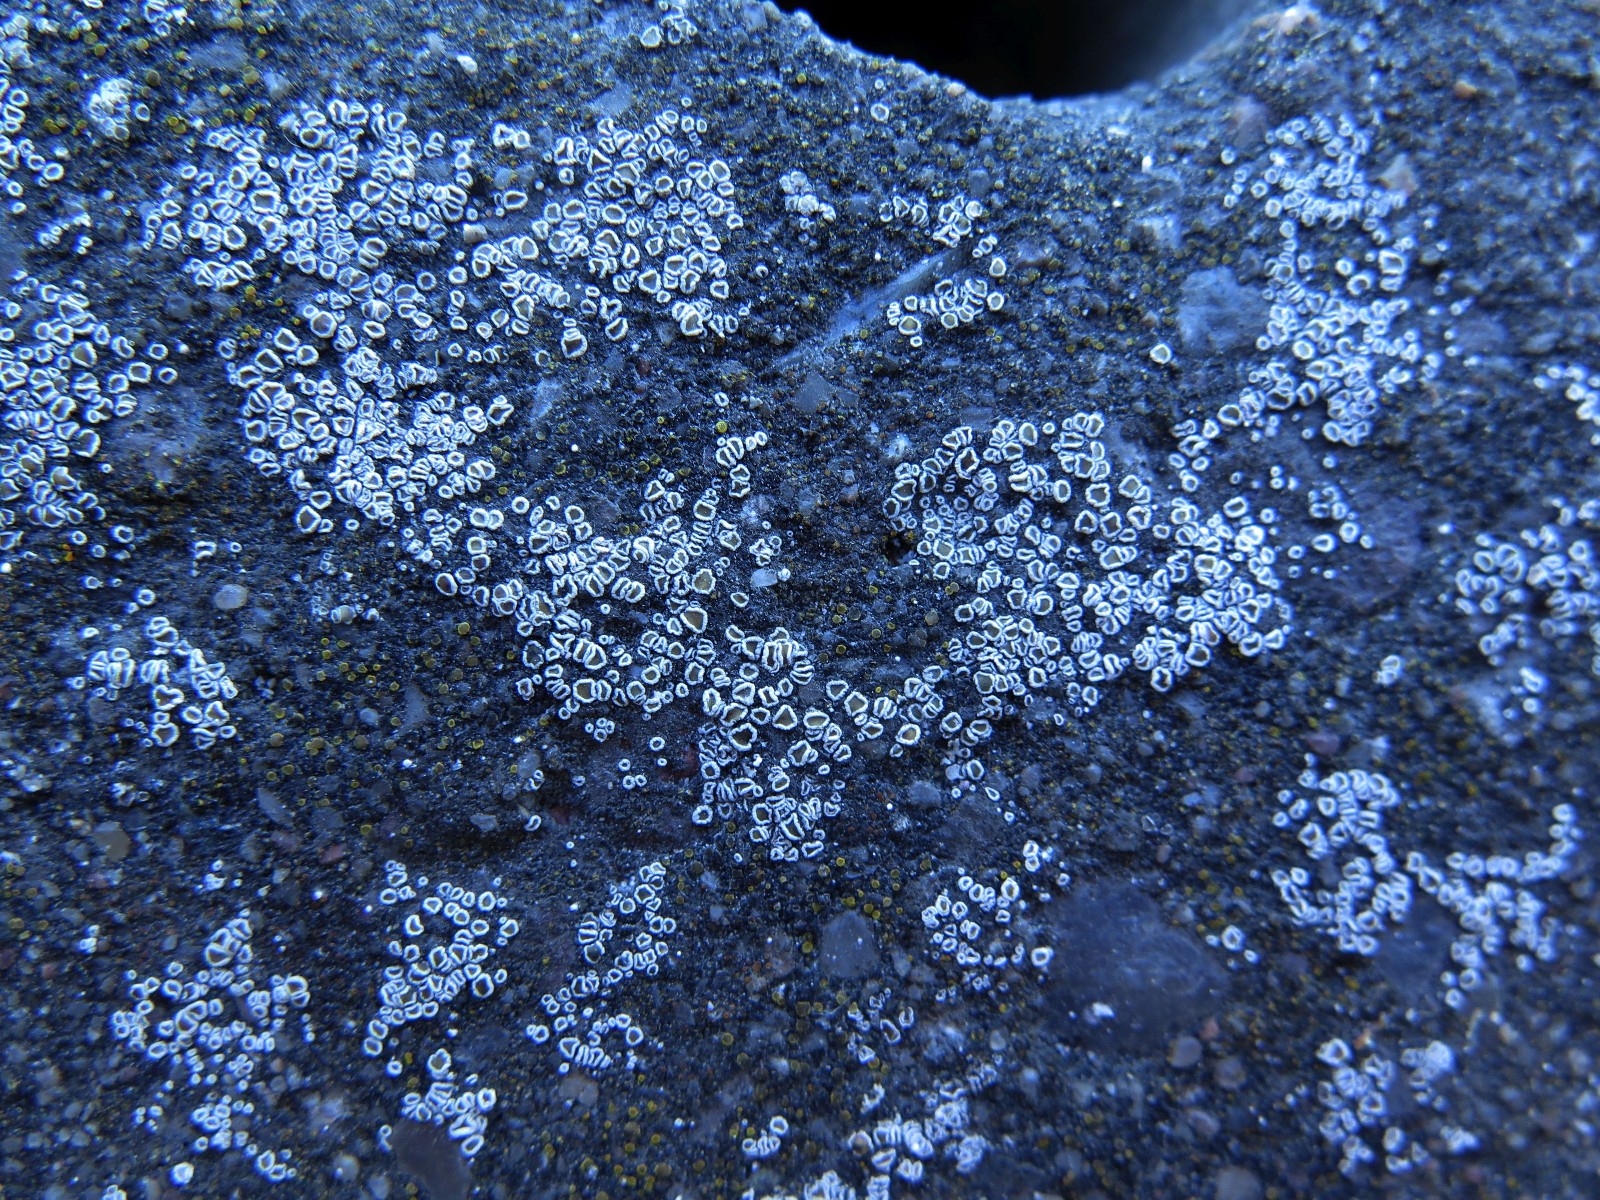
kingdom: Fungi
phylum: Ascomycota
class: Lecanoromycetes
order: Lecanorales
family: Lecanoraceae
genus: Polyozosia
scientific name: Polyozosia dispersa
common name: spredt kantskivelav
